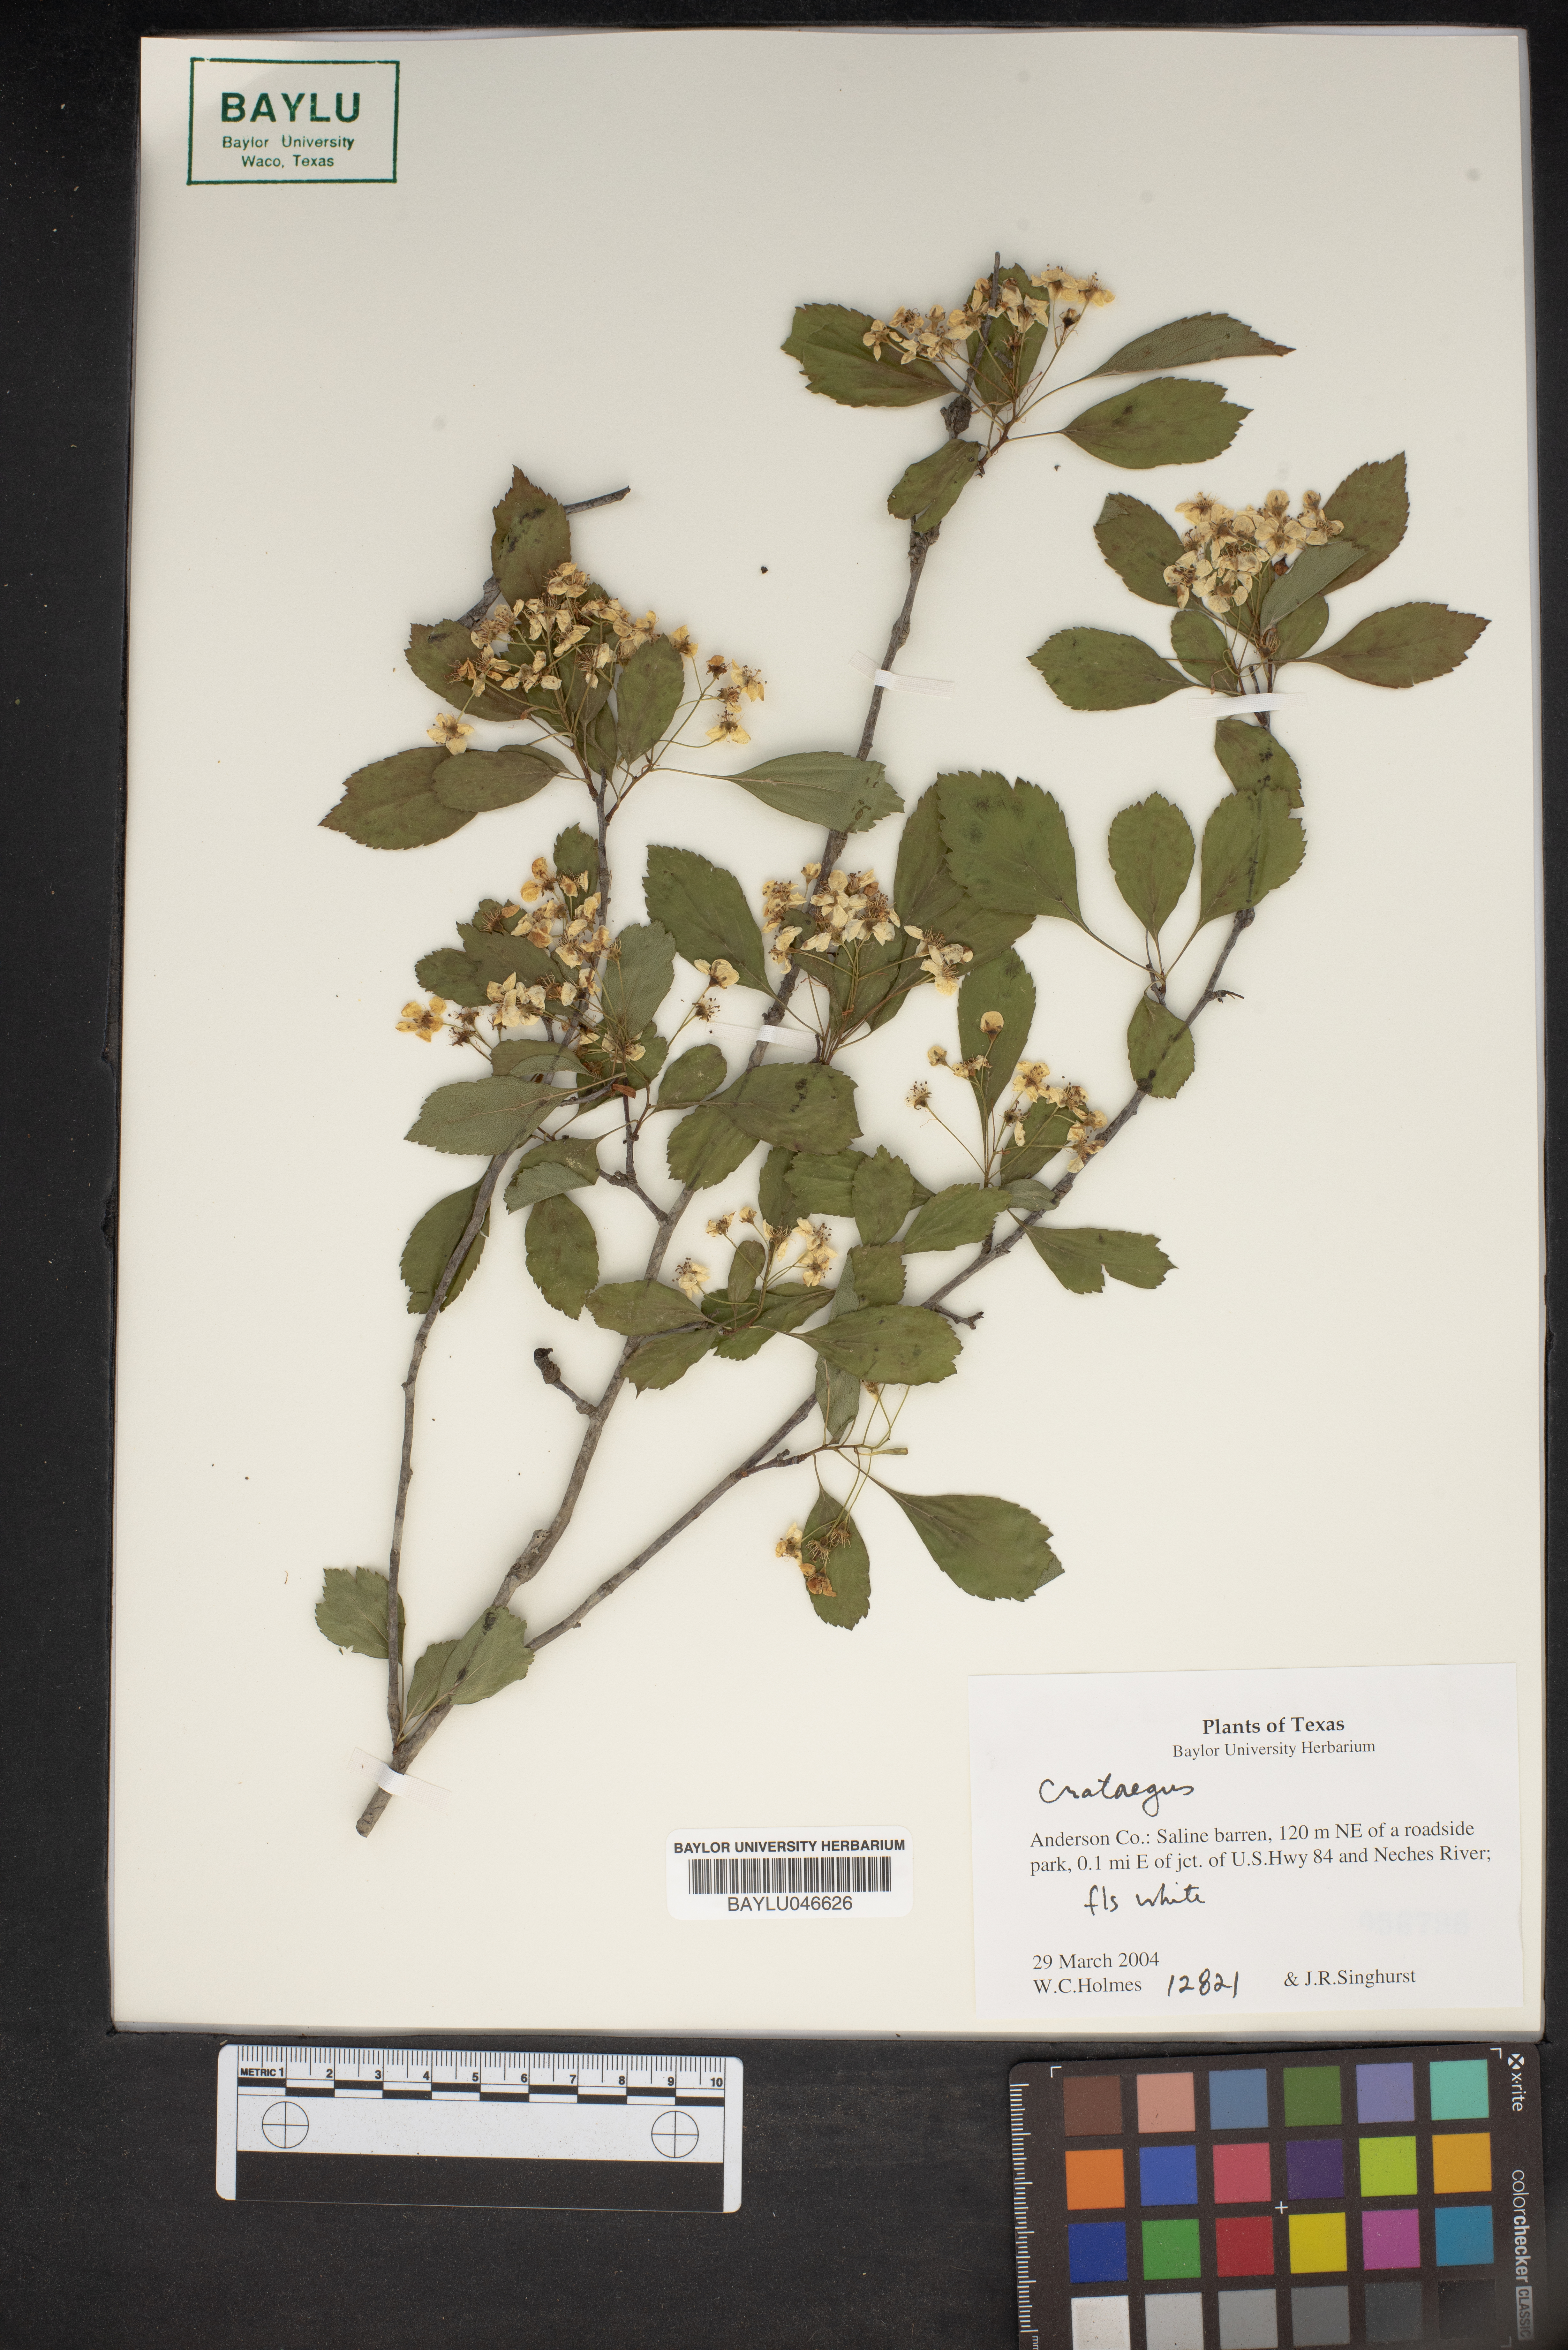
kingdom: Plantae
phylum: Tracheophyta
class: Magnoliopsida
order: Rosales
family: Rosaceae
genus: Crataegus
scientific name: Crataegus
